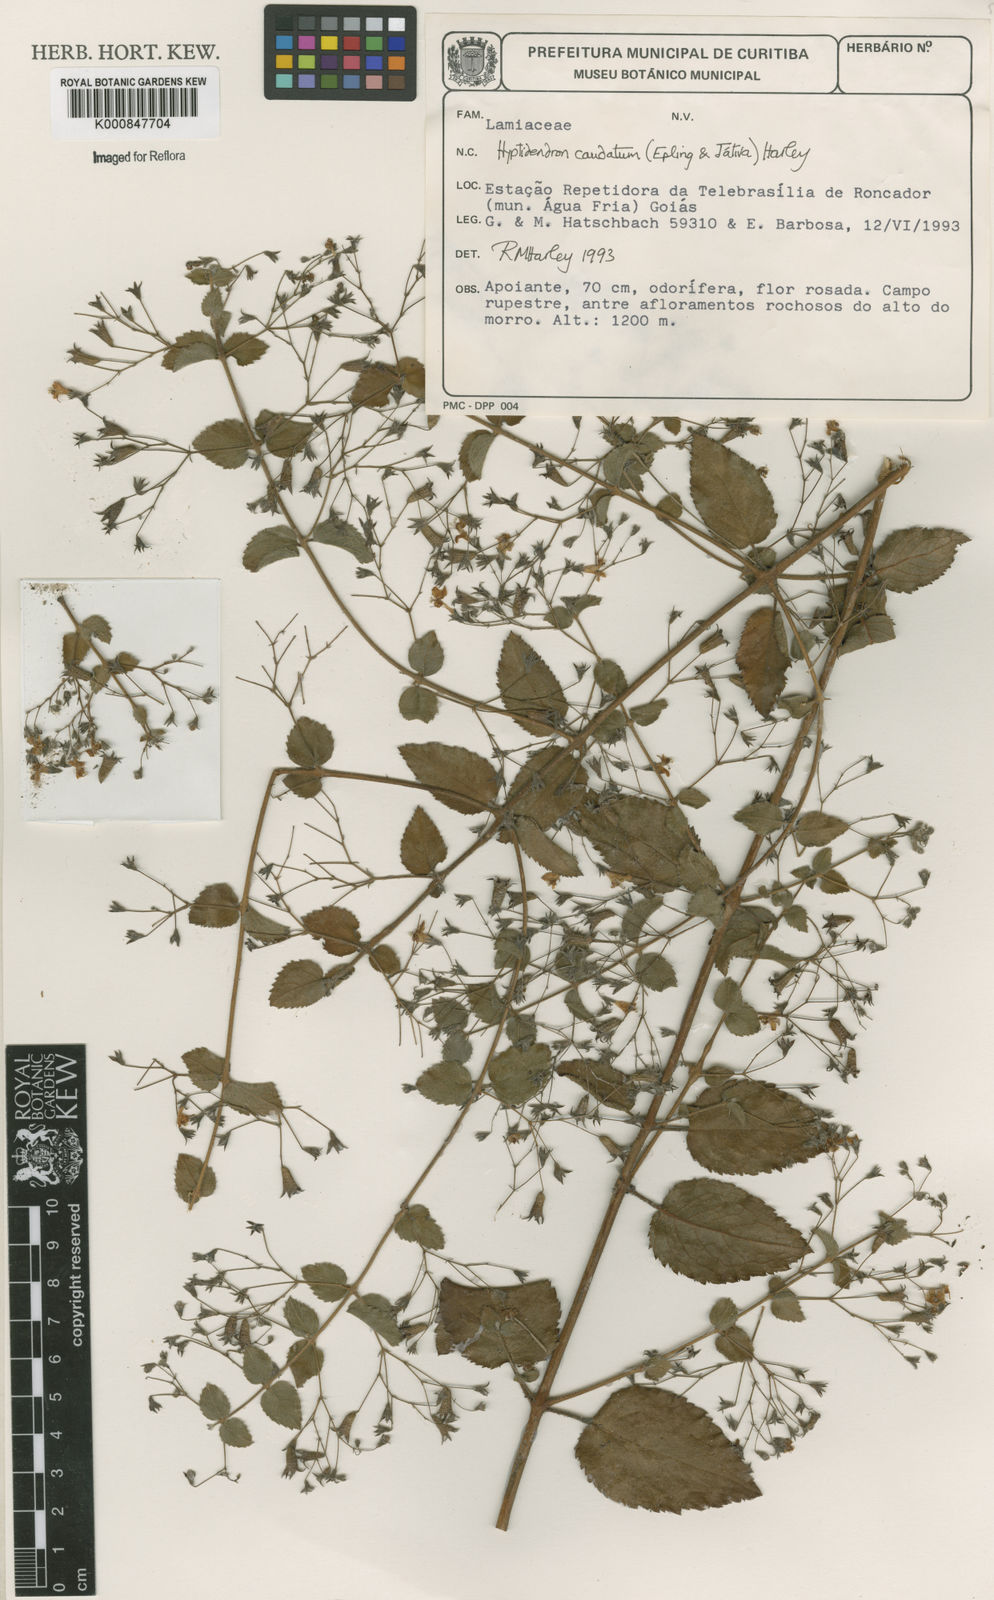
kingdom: Plantae
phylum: Tracheophyta
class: Magnoliopsida
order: Lamiales
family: Lamiaceae
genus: Hyptidendron
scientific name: Hyptidendron
